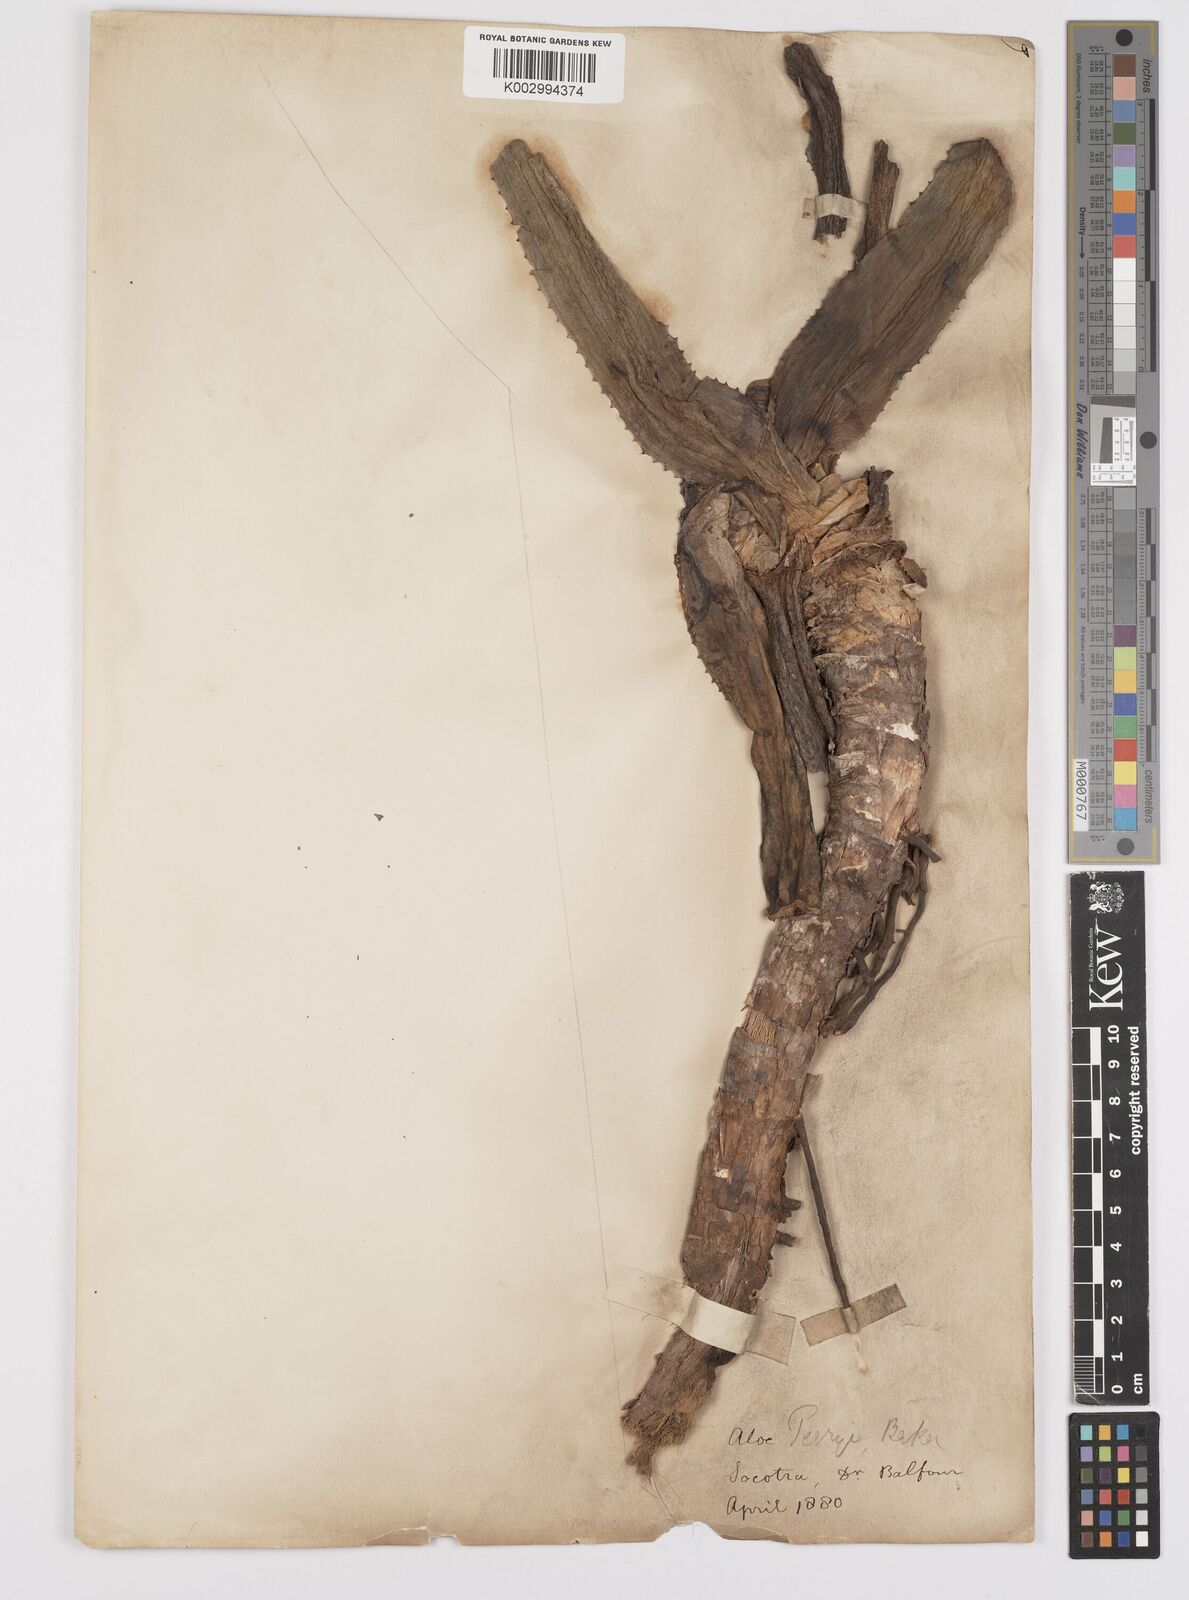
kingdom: Plantae
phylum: Tracheophyta
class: Liliopsida
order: Asparagales
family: Asphodelaceae
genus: Aloe
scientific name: Aloe perryi
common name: Socotrine aloe
